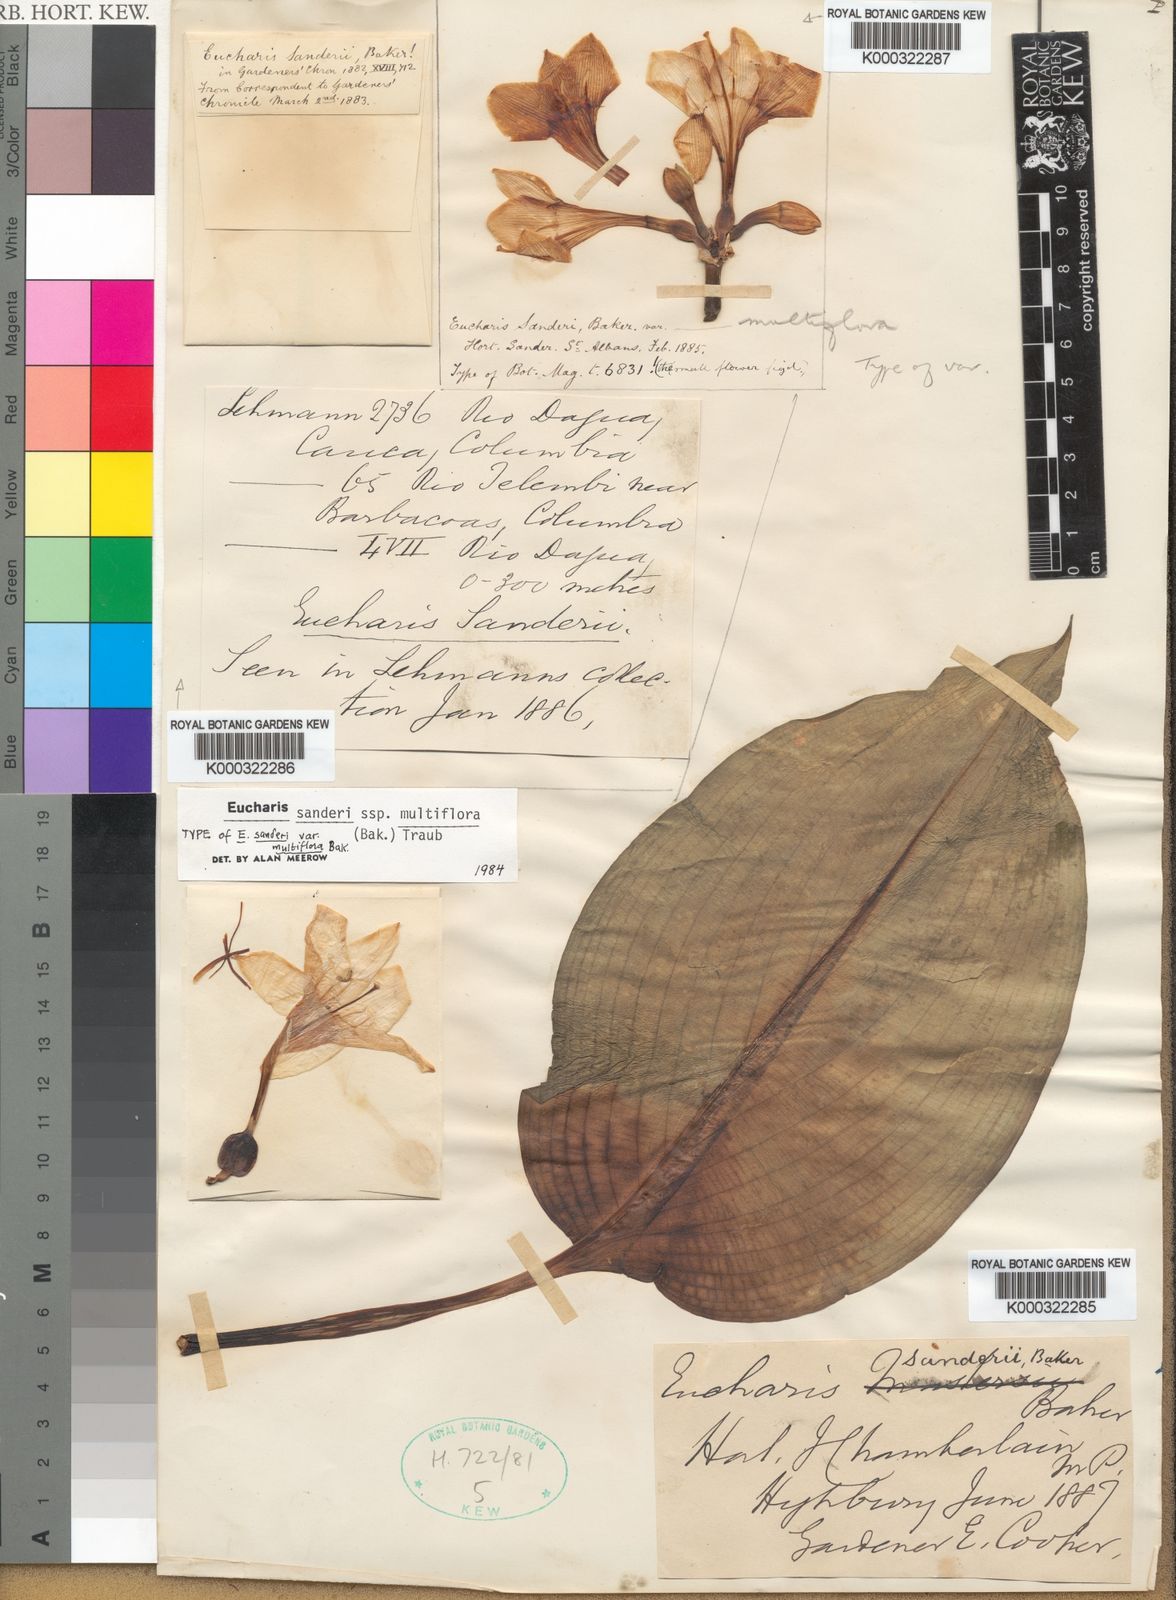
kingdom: Plantae
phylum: Tracheophyta
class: Liliopsida
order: Asparagales
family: Amaryllidaceae
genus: Urceolina
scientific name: Urceolina sanderi
